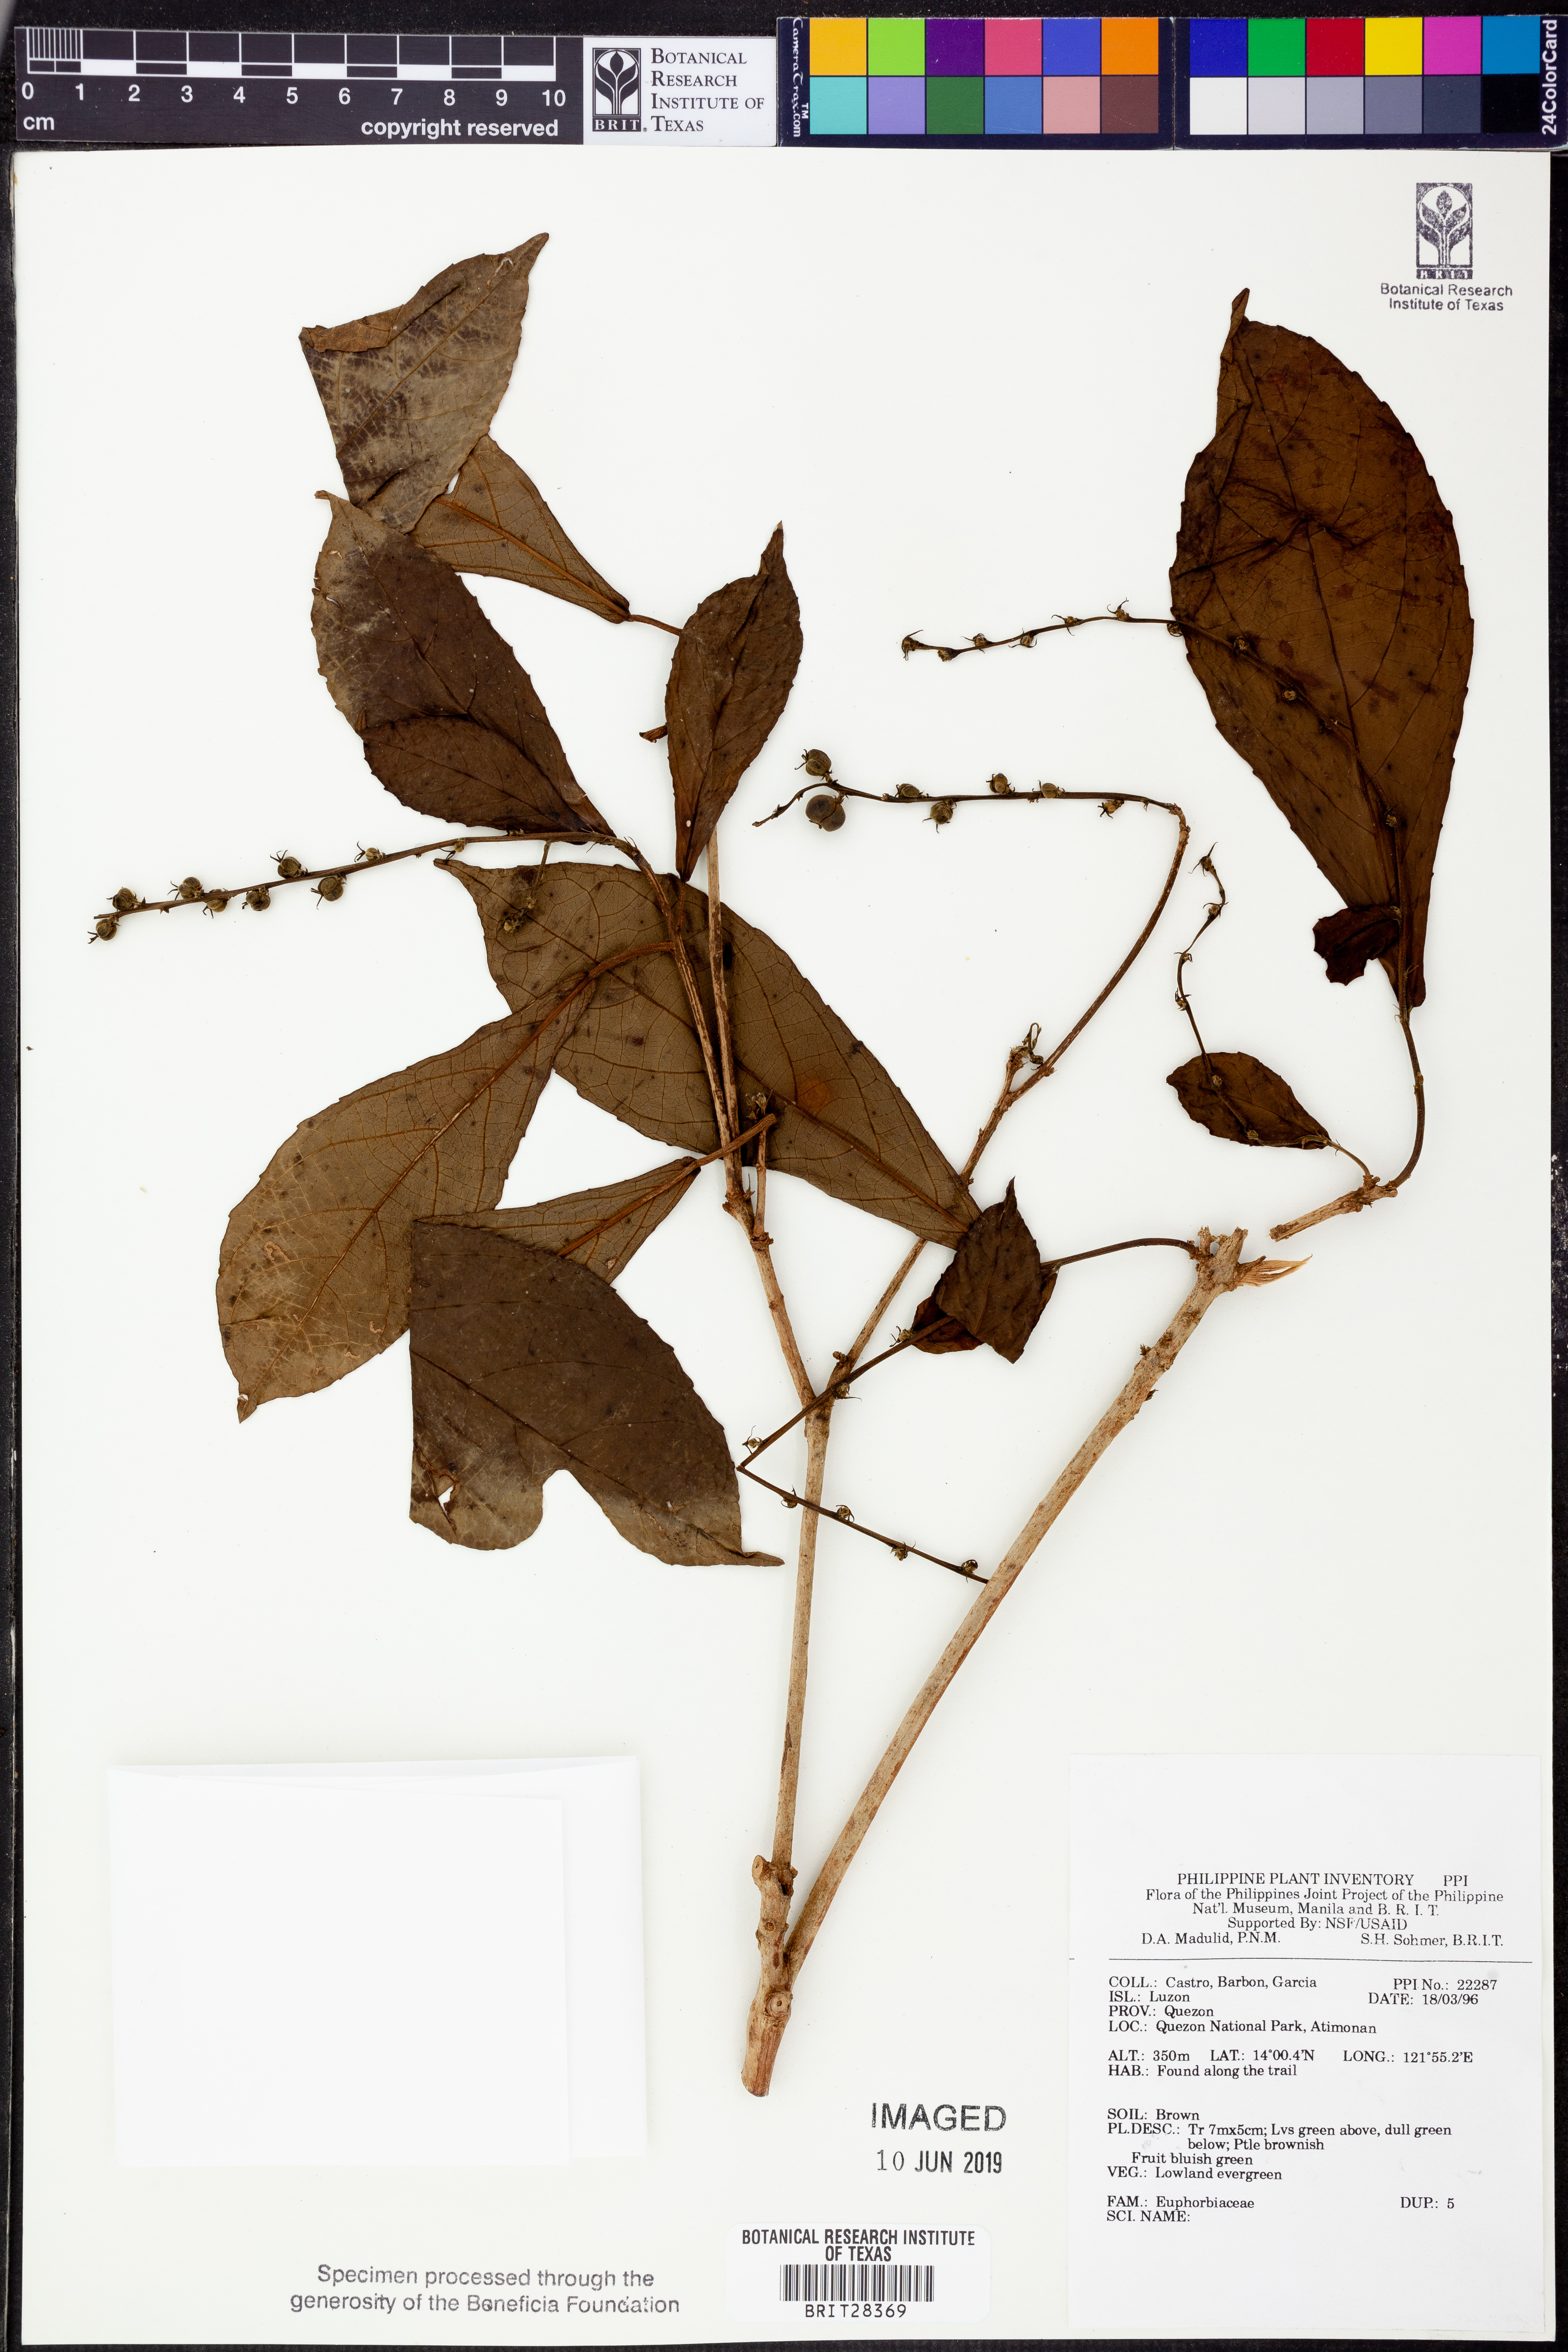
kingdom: Plantae
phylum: Tracheophyta
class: Magnoliopsida
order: Malpighiales
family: Euphorbiaceae
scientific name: Euphorbiaceae
